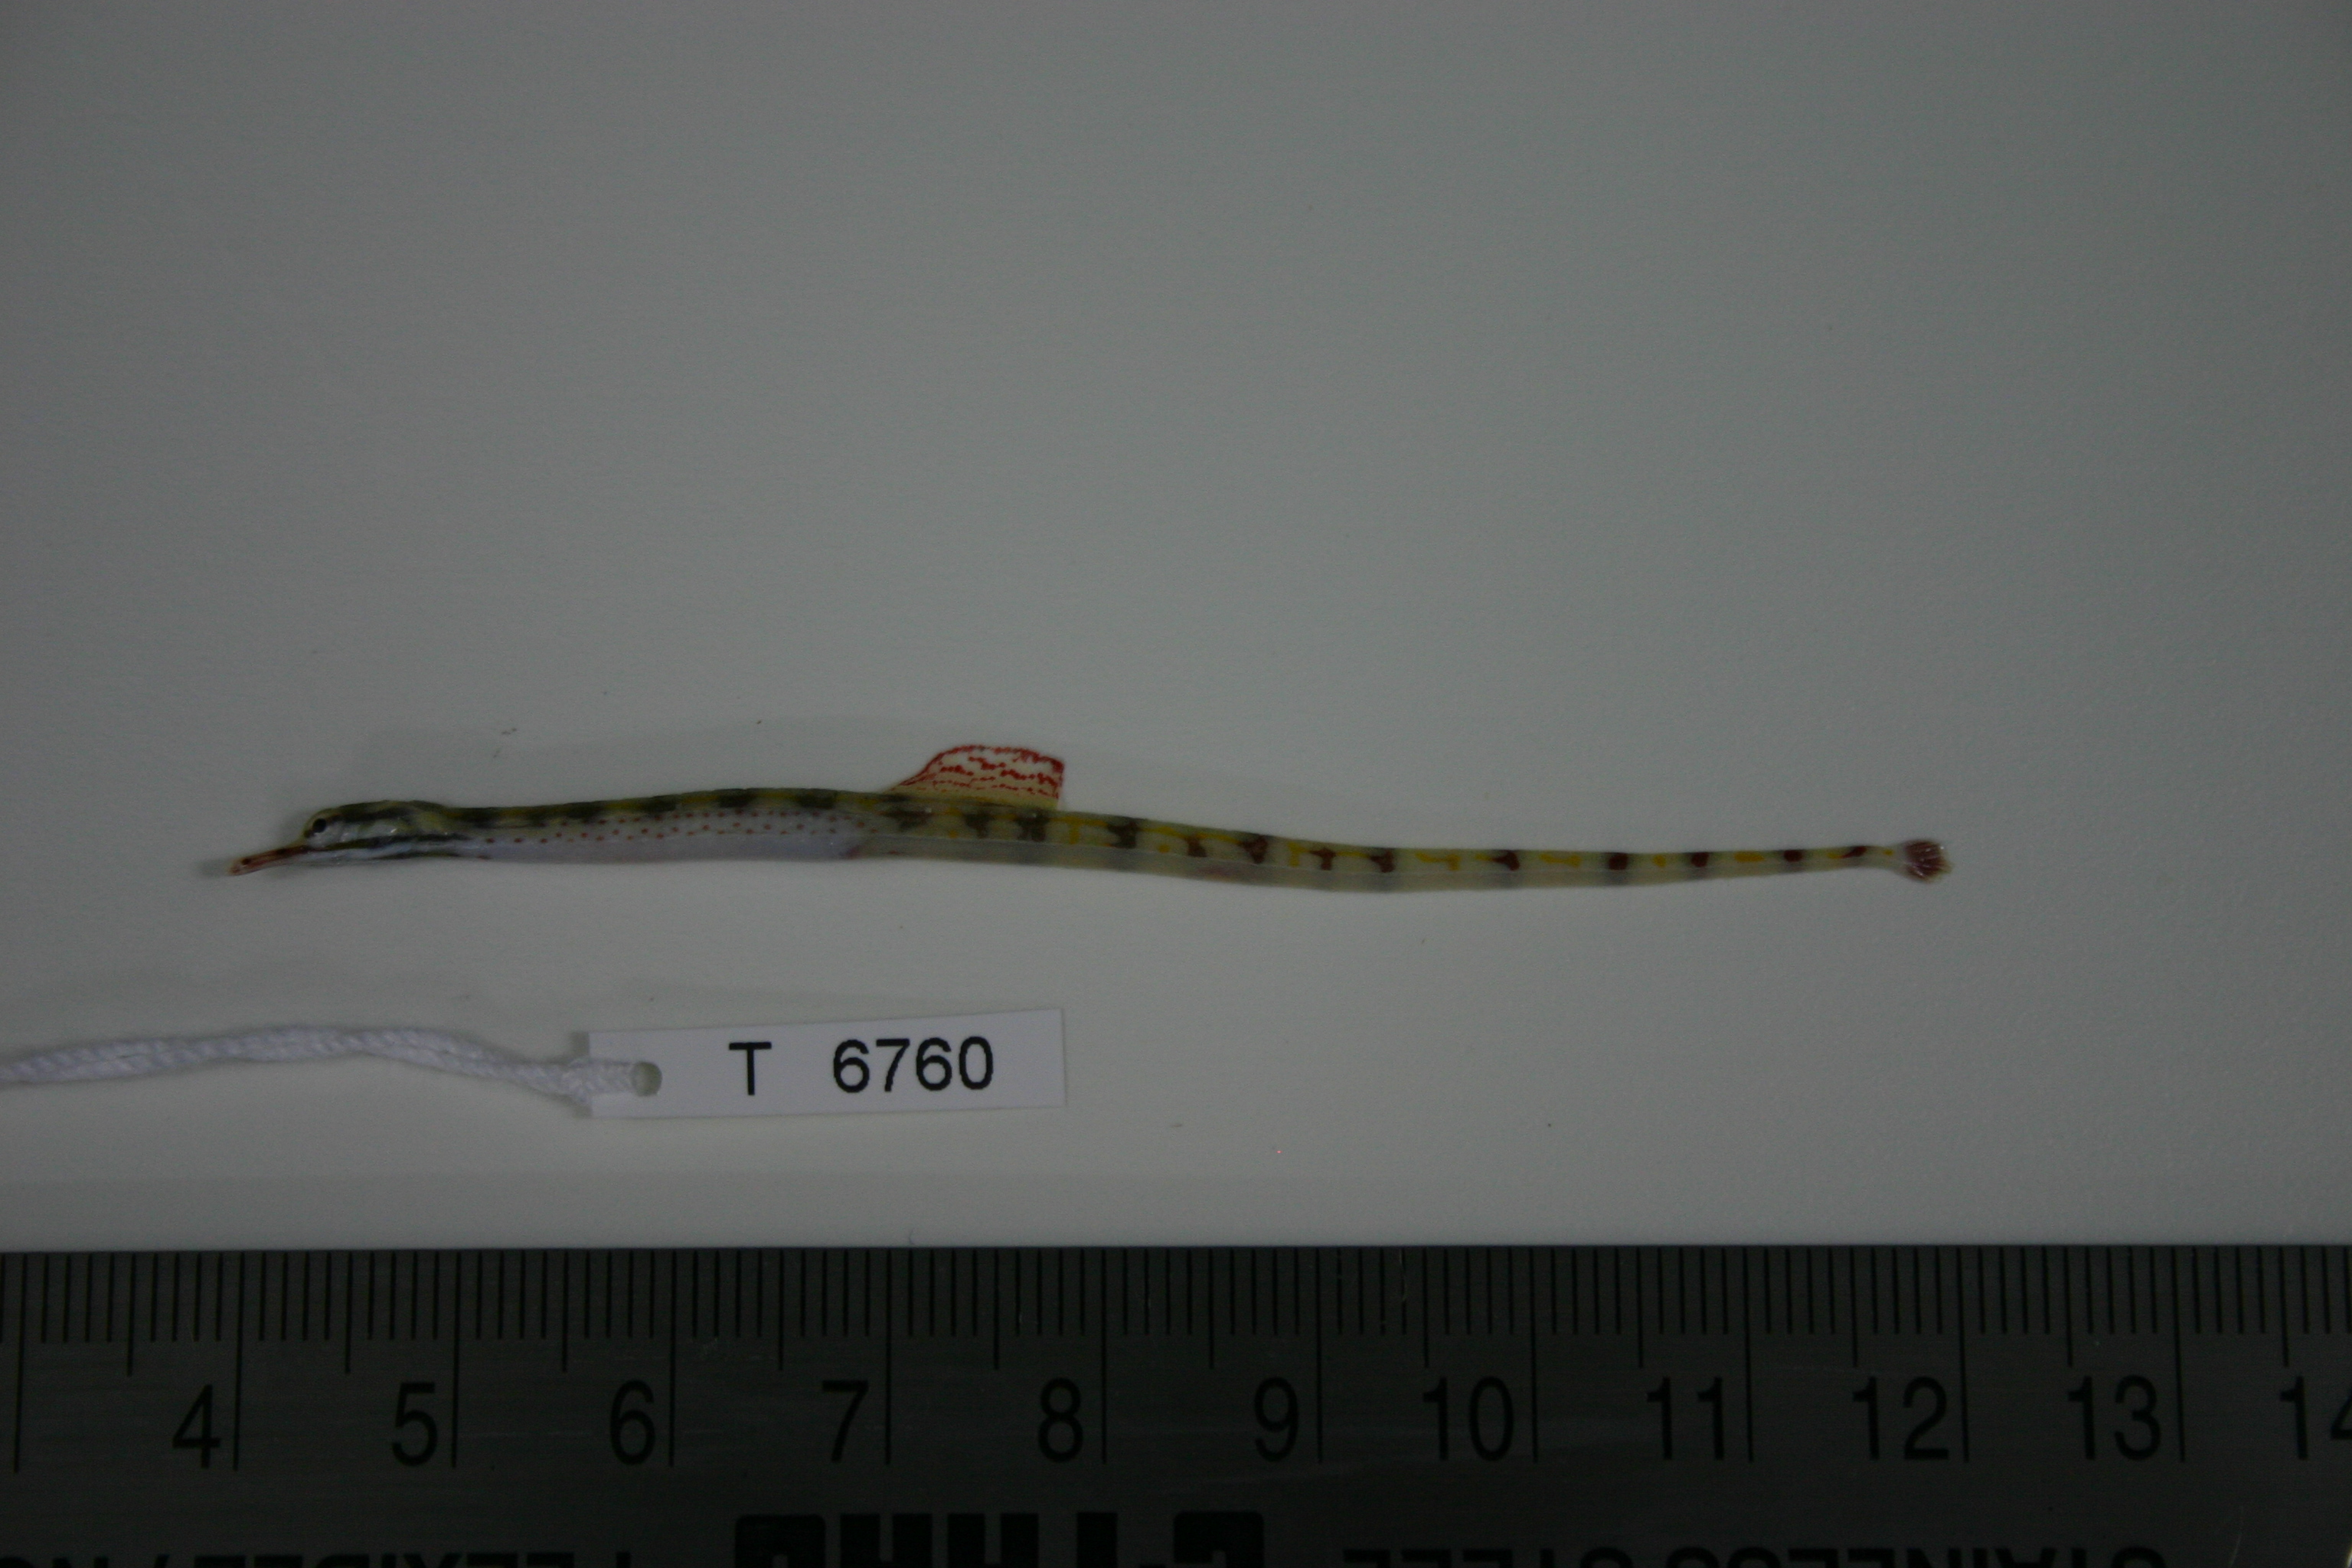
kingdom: Animalia
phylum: Chordata
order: Syngnathiformes
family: Syngnathidae
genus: Corythoichthys
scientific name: Corythoichthys flavofasciatus
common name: Banded pipefish
